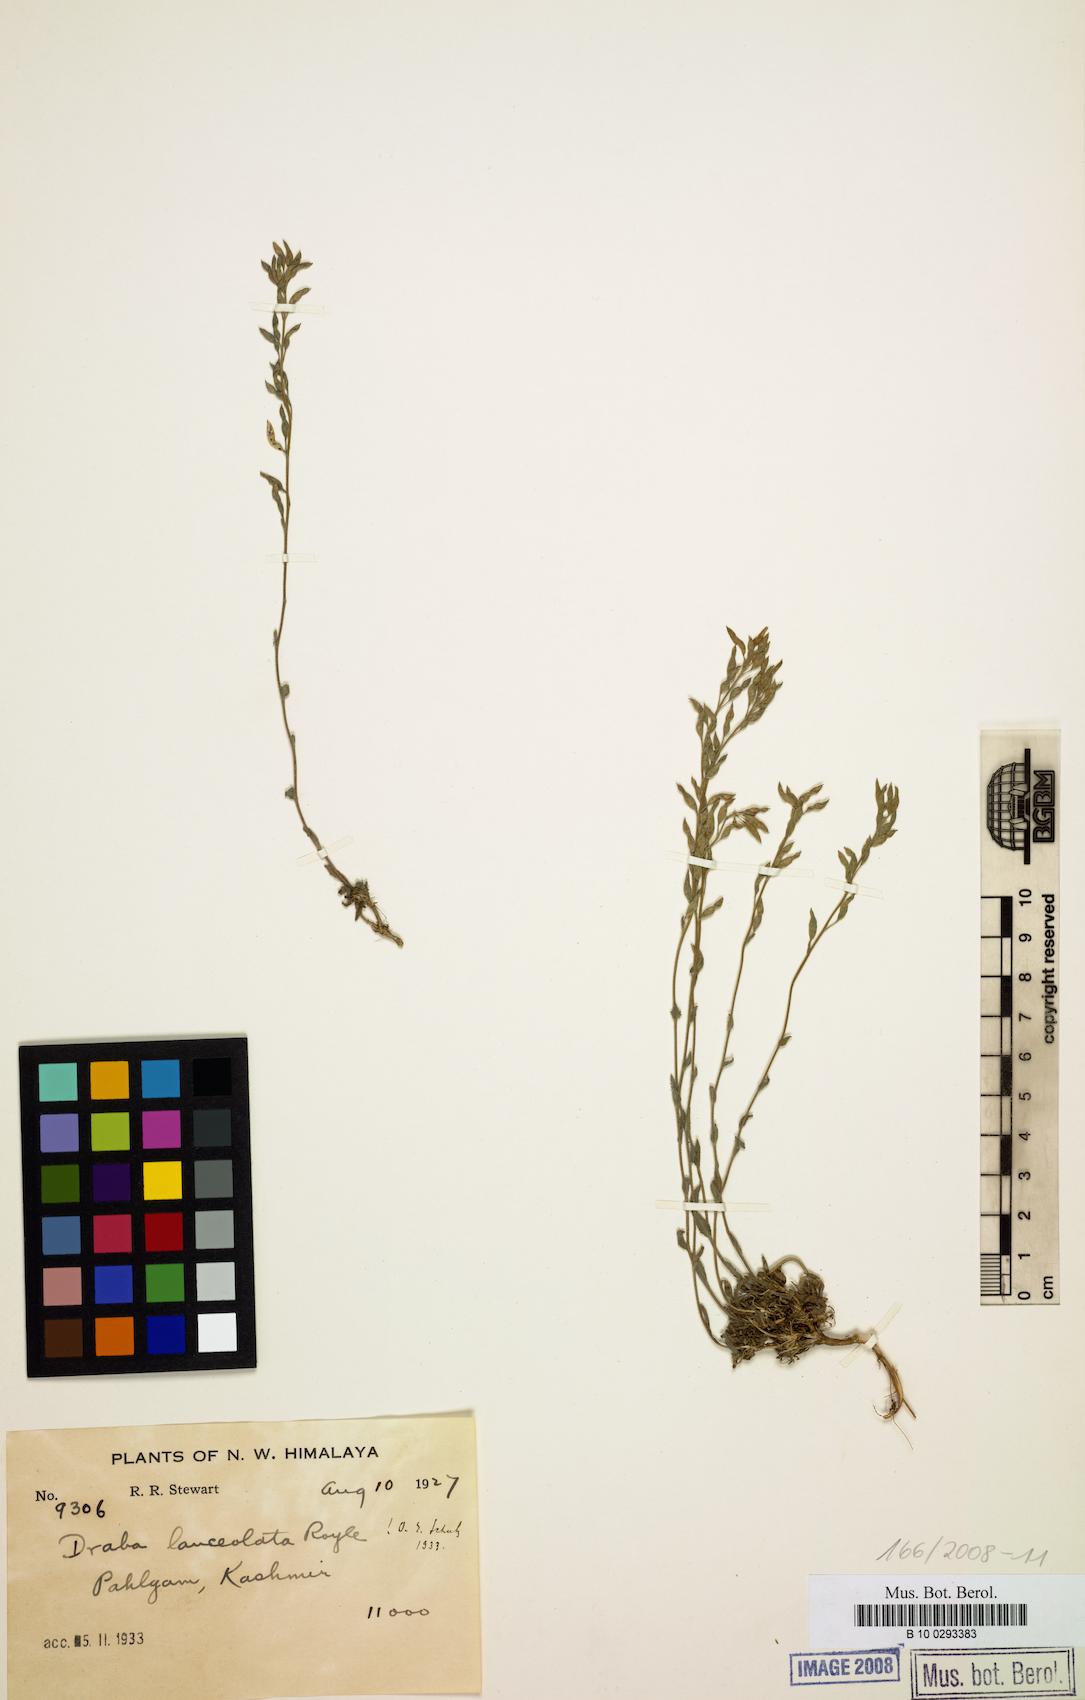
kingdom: Plantae
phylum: Tracheophyta
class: Magnoliopsida
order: Brassicales
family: Brassicaceae
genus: Draba
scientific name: Draba lanceolata
